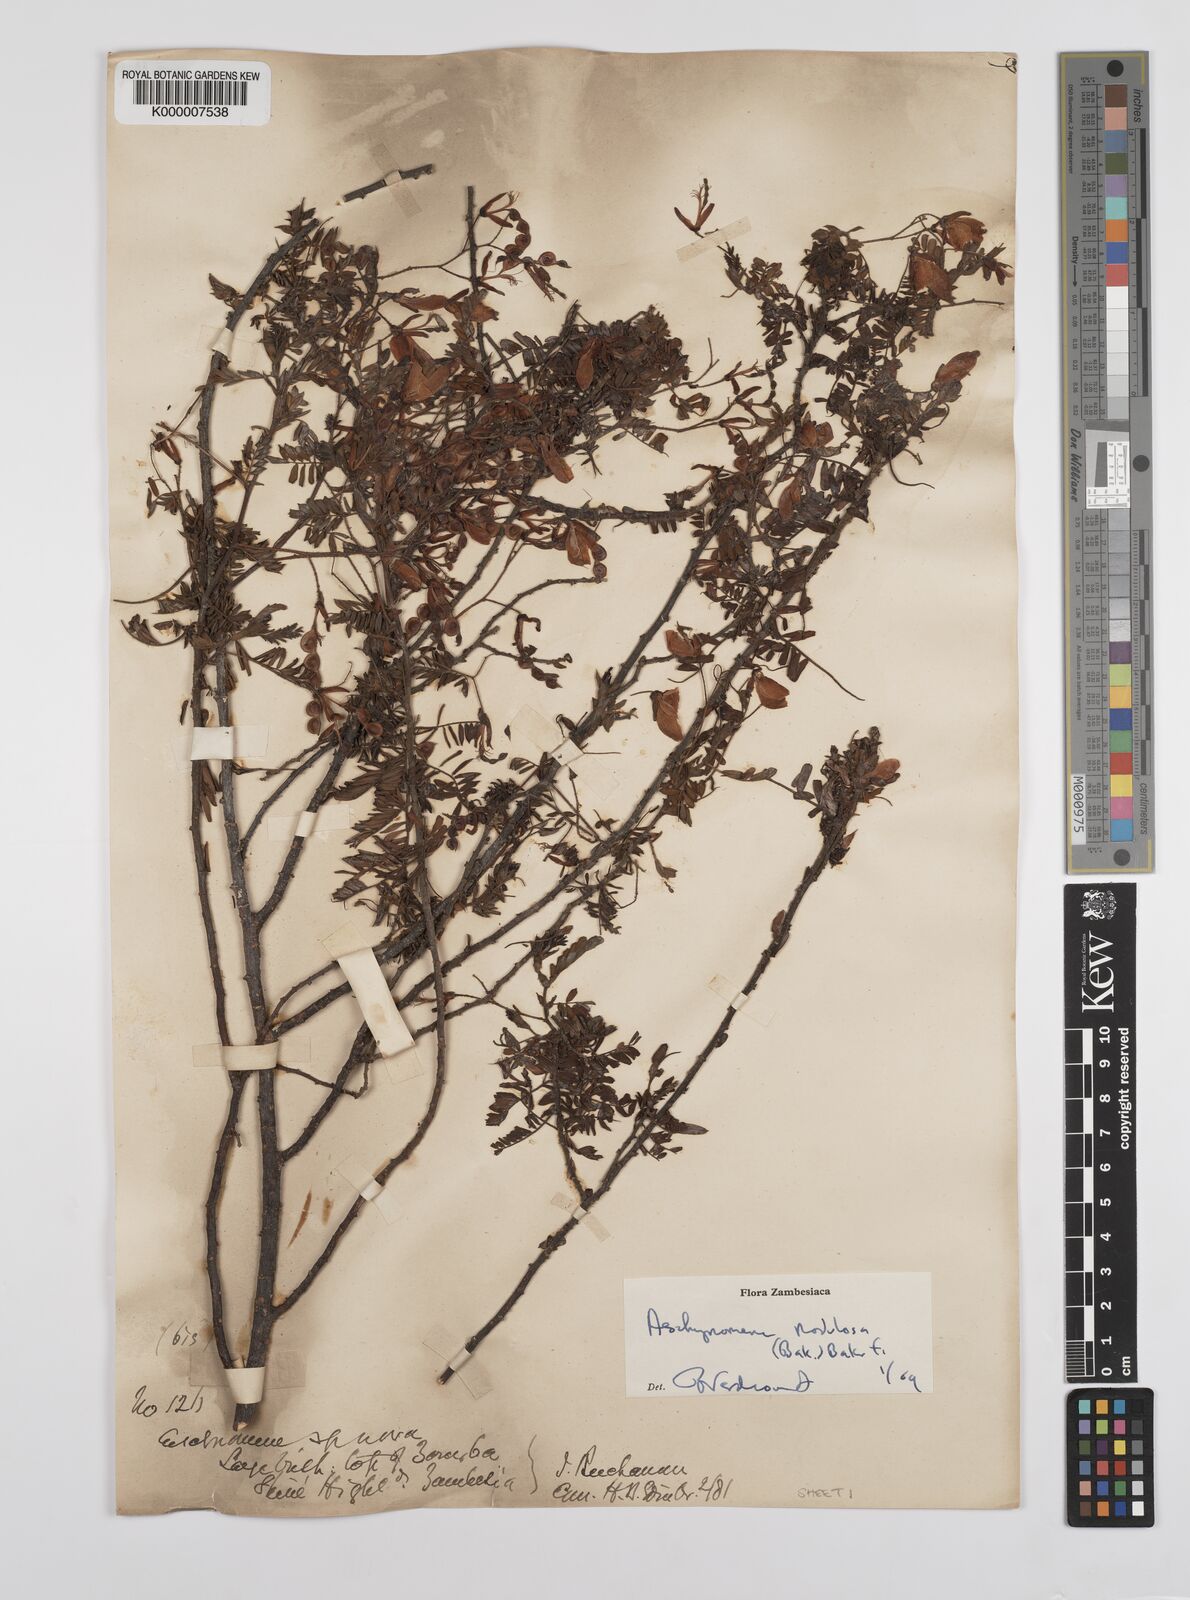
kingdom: Plantae
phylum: Tracheophyta
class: Magnoliopsida
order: Fabales
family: Fabaceae
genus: Aeschynomene
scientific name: Aeschynomene nodulosa
